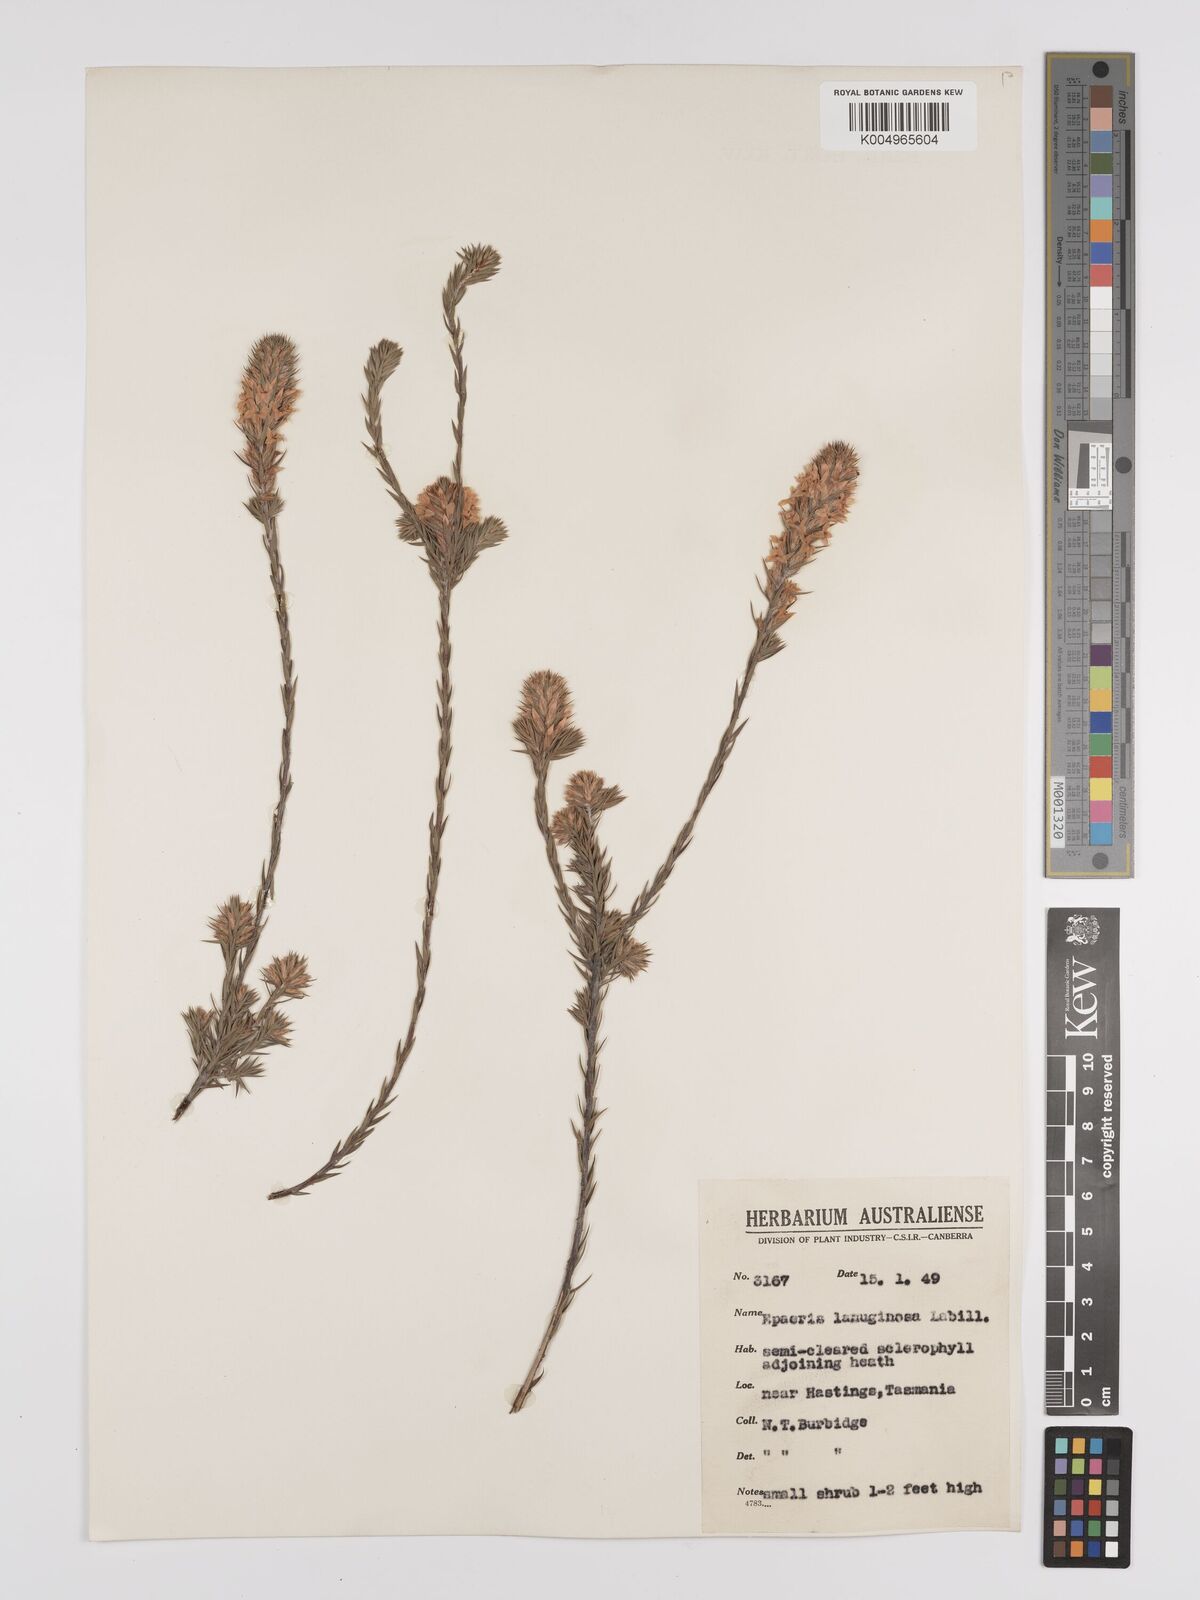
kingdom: Plantae
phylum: Tracheophyta
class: Magnoliopsida
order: Ericales
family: Ericaceae
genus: Epacris
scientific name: Epacris lanuginosa
